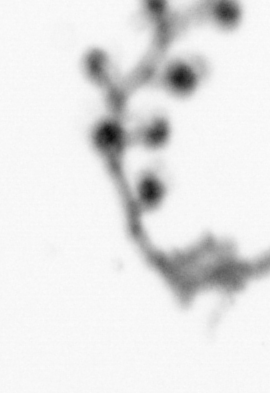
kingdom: Animalia
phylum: Cnidaria
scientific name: Cnidaria
